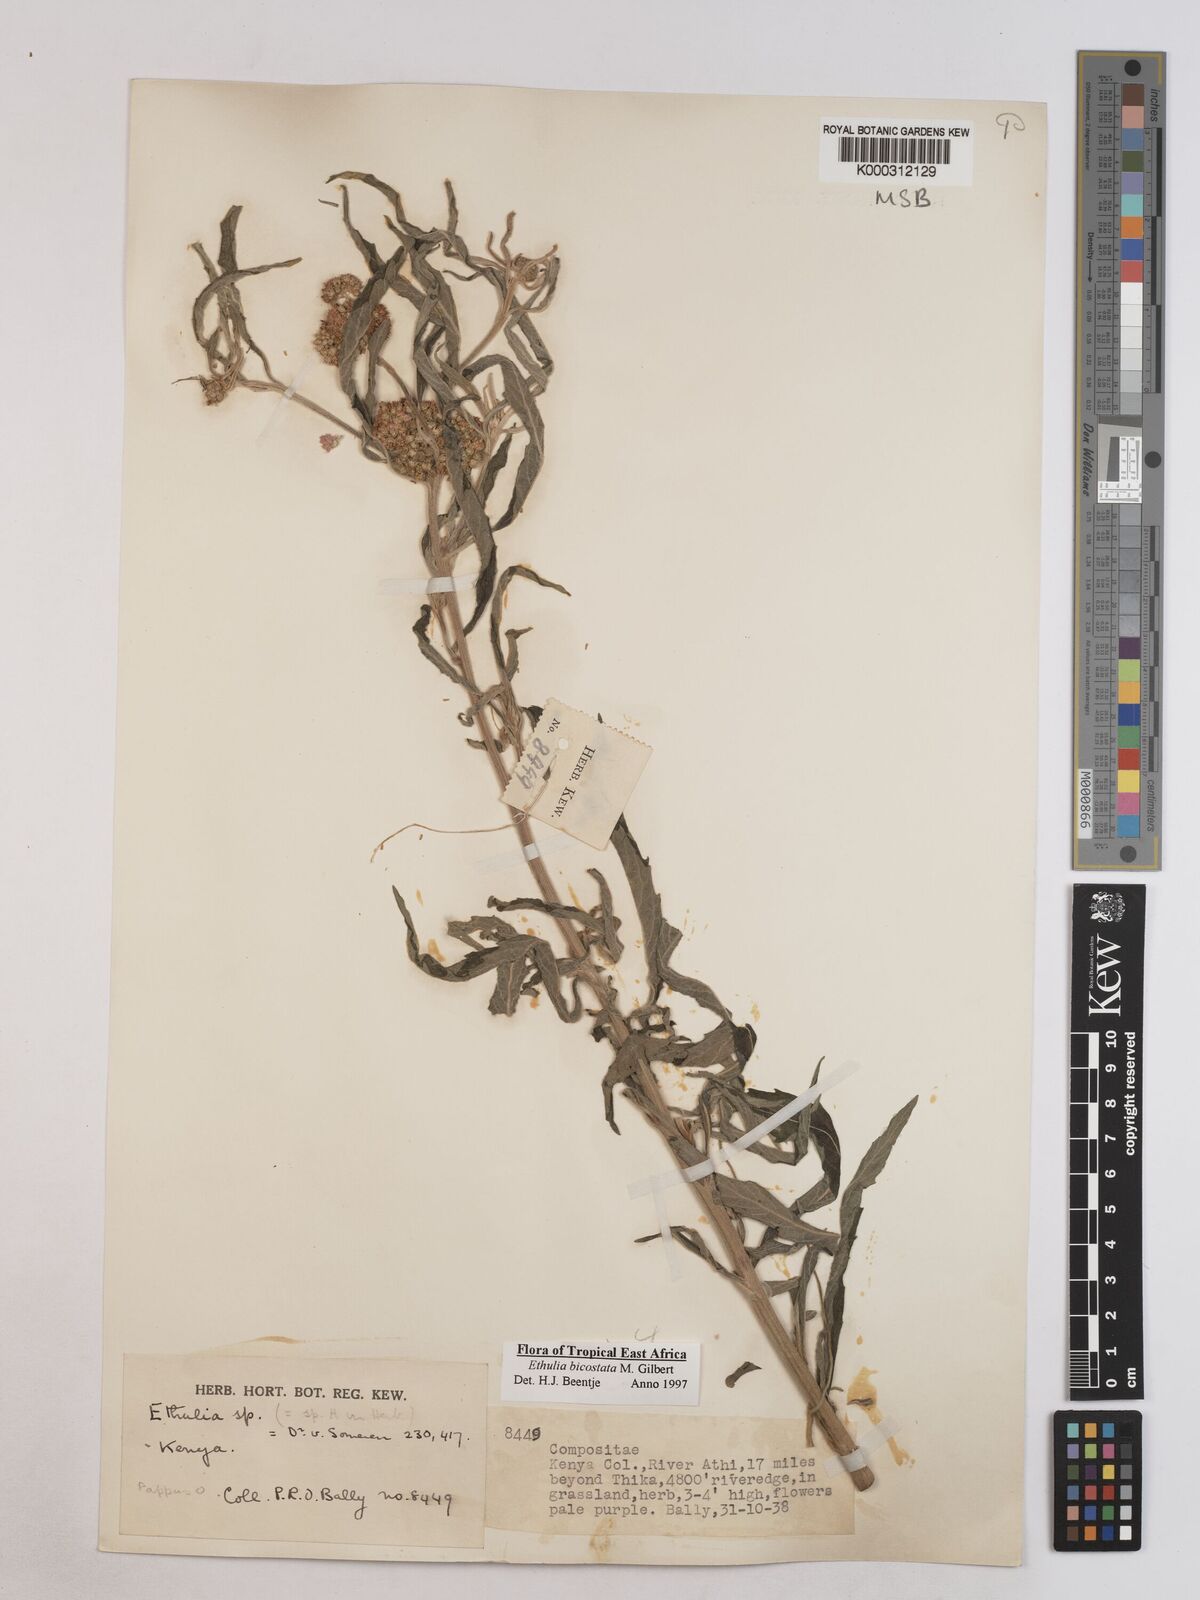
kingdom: Plantae
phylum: Tracheophyta
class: Magnoliopsida
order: Asterales
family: Asteraceae
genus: Ethulia
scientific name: Ethulia bicostata
